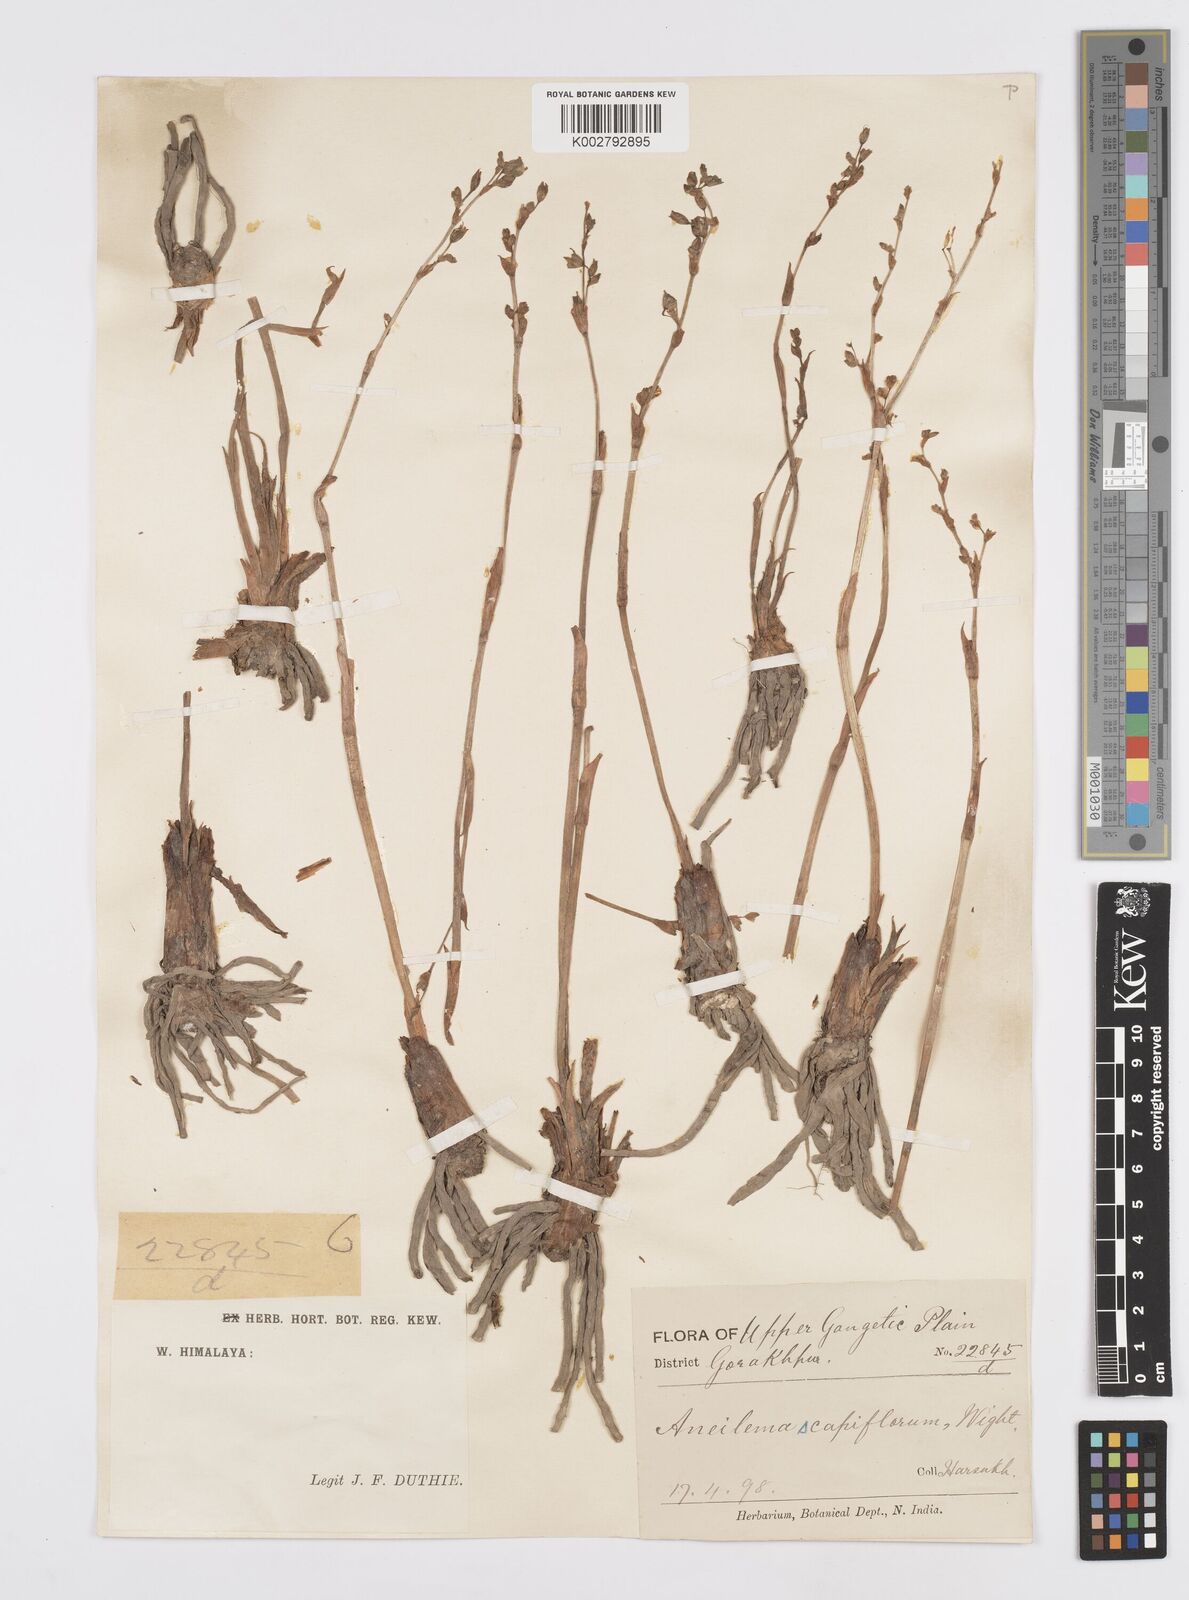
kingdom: Plantae
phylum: Tracheophyta
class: Liliopsida
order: Commelinales
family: Commelinaceae
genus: Murdannia
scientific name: Murdannia edulis
